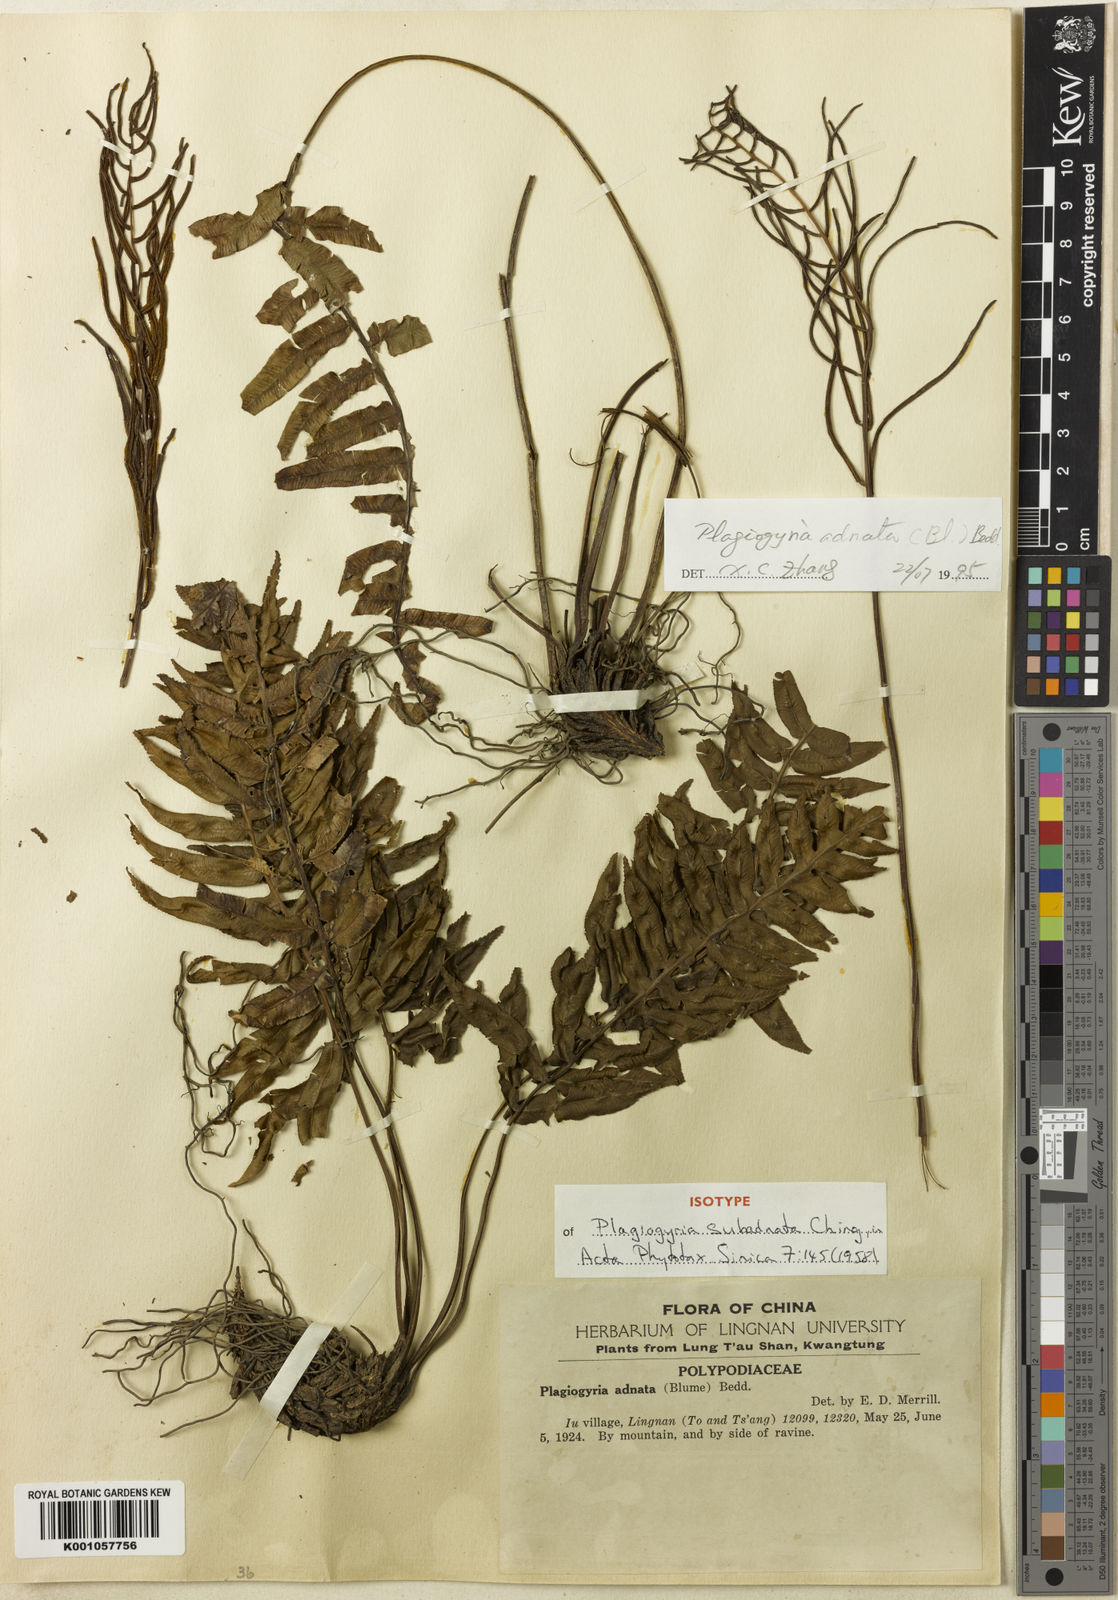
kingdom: Plantae
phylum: Tracheophyta
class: Polypodiopsida
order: Cyatheales
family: Plagiogyriaceae
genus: Plagiogyria
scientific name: Plagiogyria adnata
